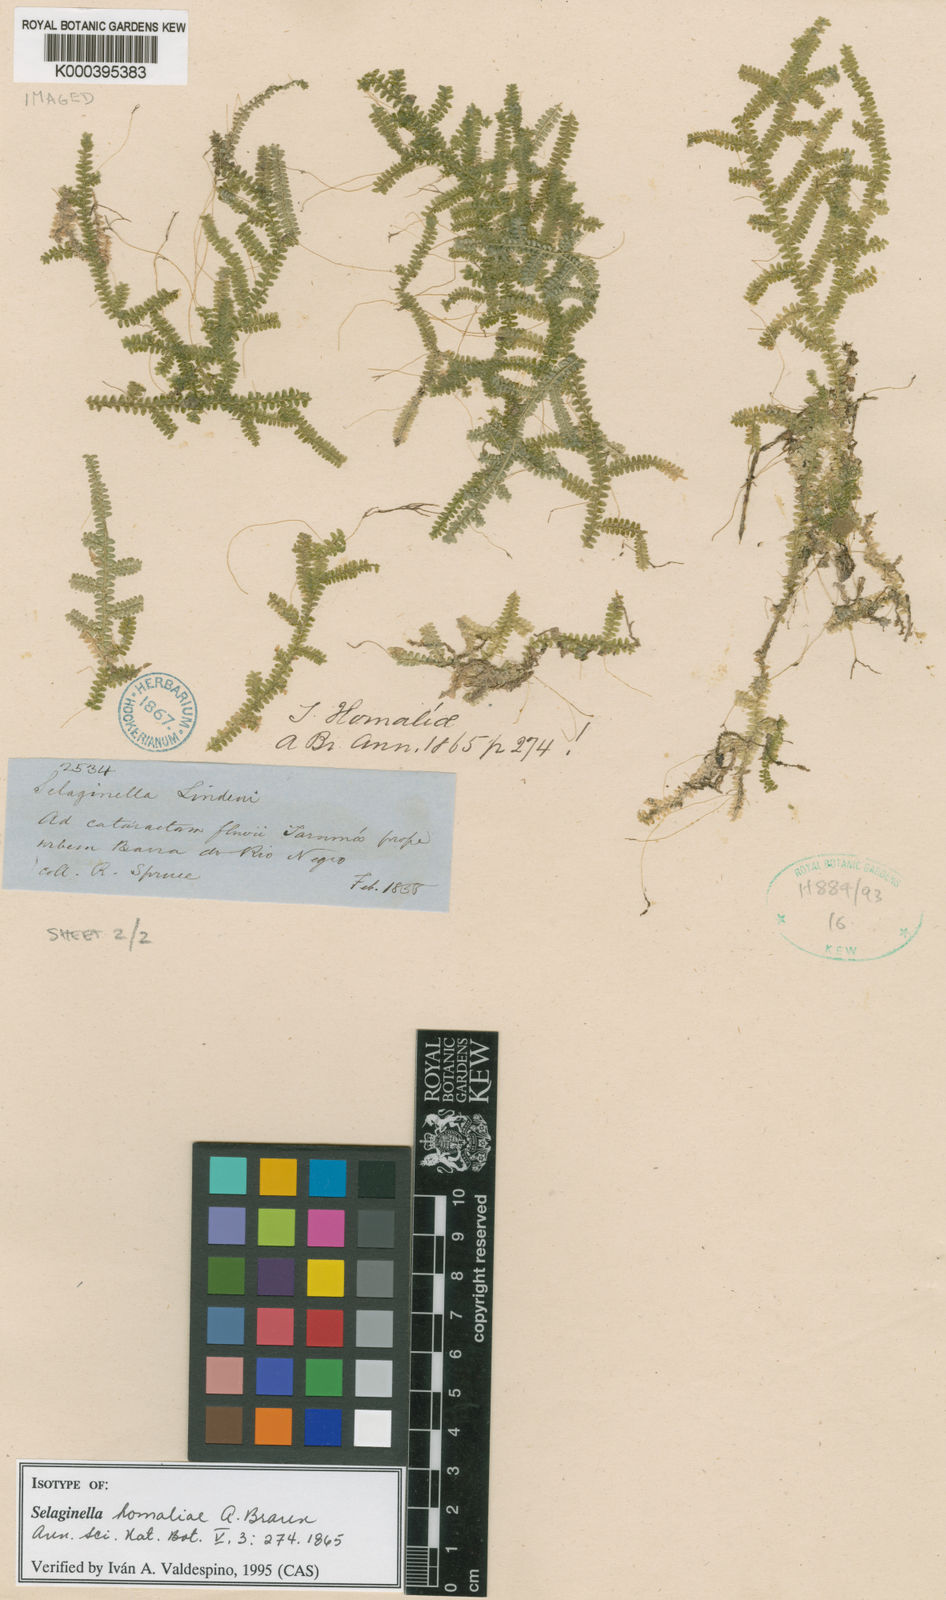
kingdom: Plantae
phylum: Tracheophyta
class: Lycopodiopsida
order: Selaginellales
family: Selaginellaceae
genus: Selaginella
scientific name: Selaginella
